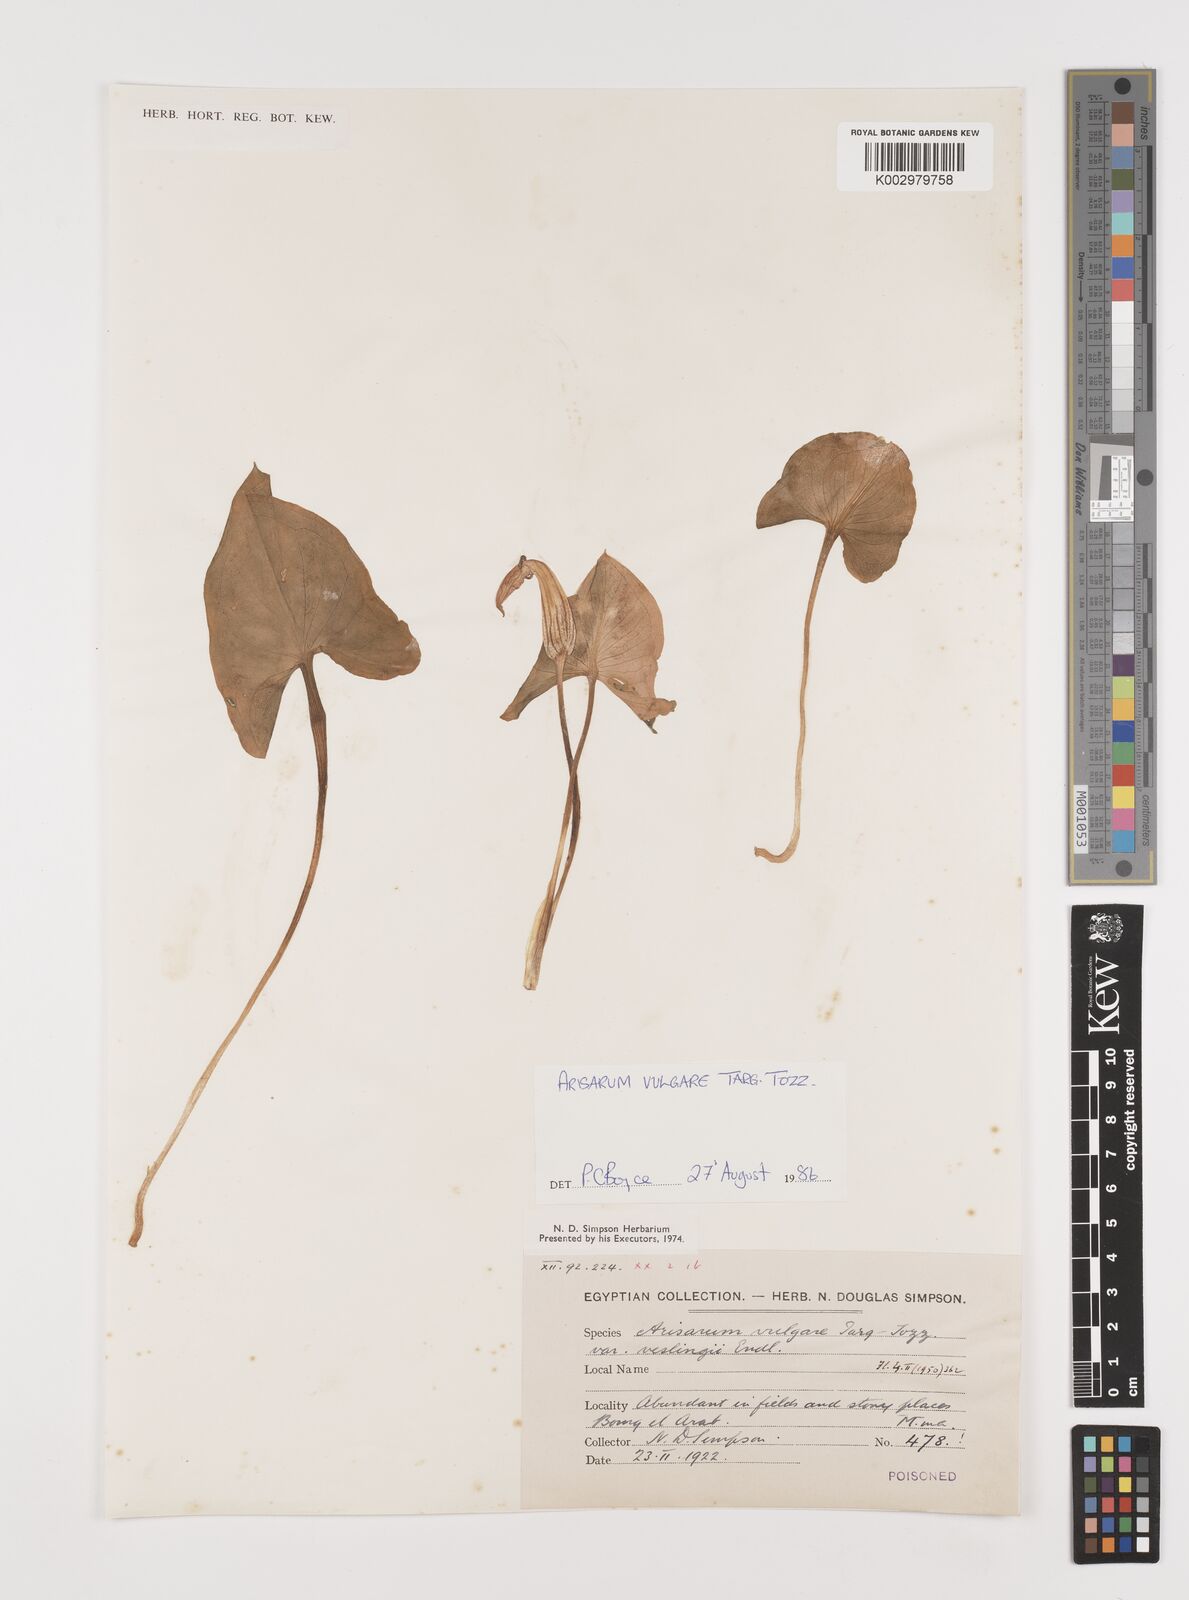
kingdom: Plantae
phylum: Tracheophyta
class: Liliopsida
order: Alismatales
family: Araceae
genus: Arisarum
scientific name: Arisarum vulgare
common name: Common arisarum
